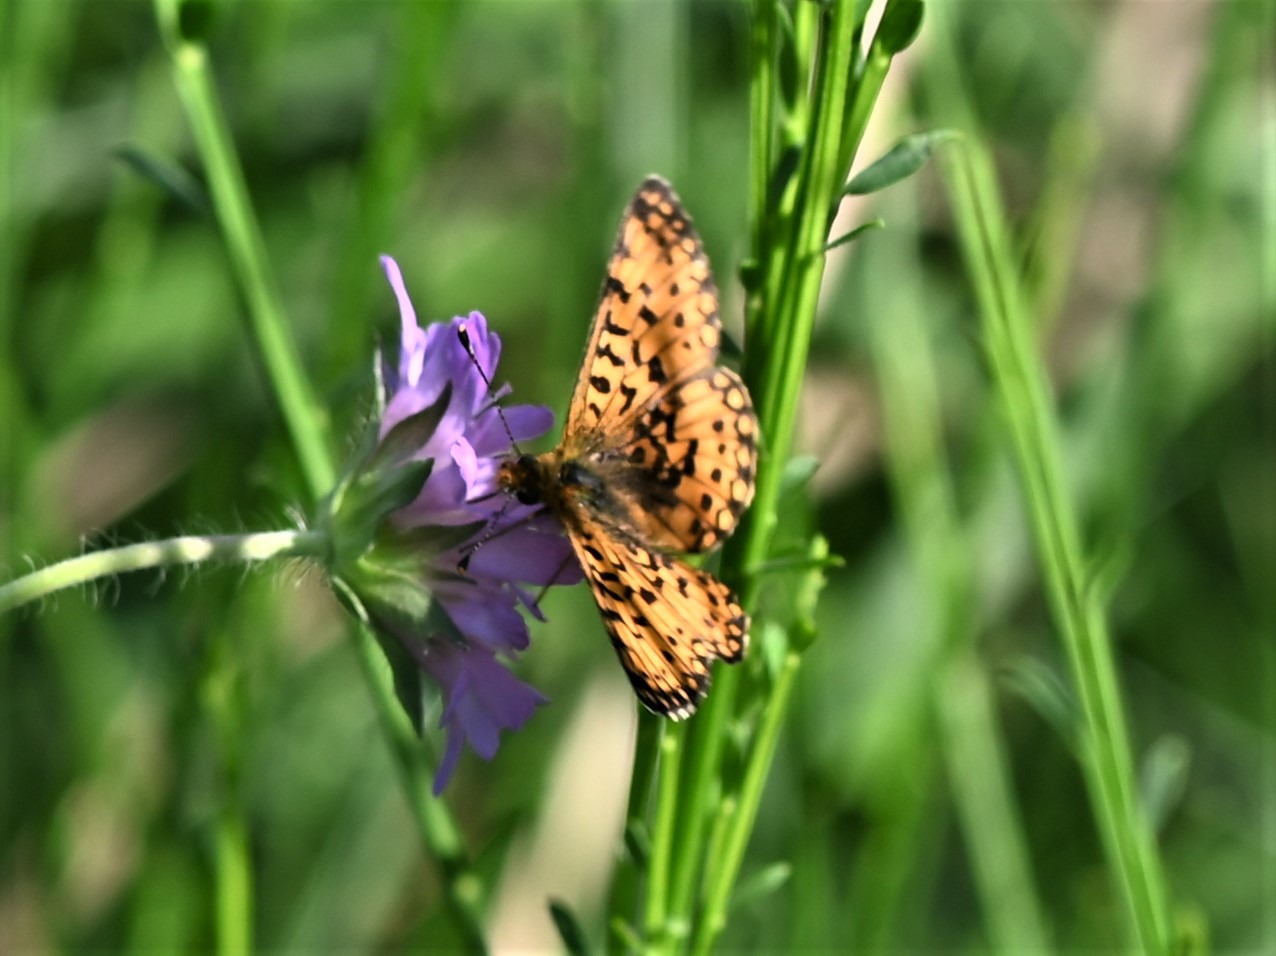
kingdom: Animalia
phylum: Arthropoda
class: Insecta
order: Lepidoptera
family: Nymphalidae
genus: Boloria
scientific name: Boloria selene
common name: Brunlig perlemorsommerfugl
